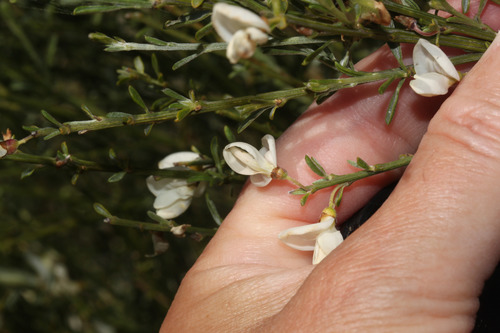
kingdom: Plantae
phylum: Tracheophyta
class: Magnoliopsida
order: Fabales
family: Fabaceae
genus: Cytisus
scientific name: Cytisus multiflorus
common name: White broom
